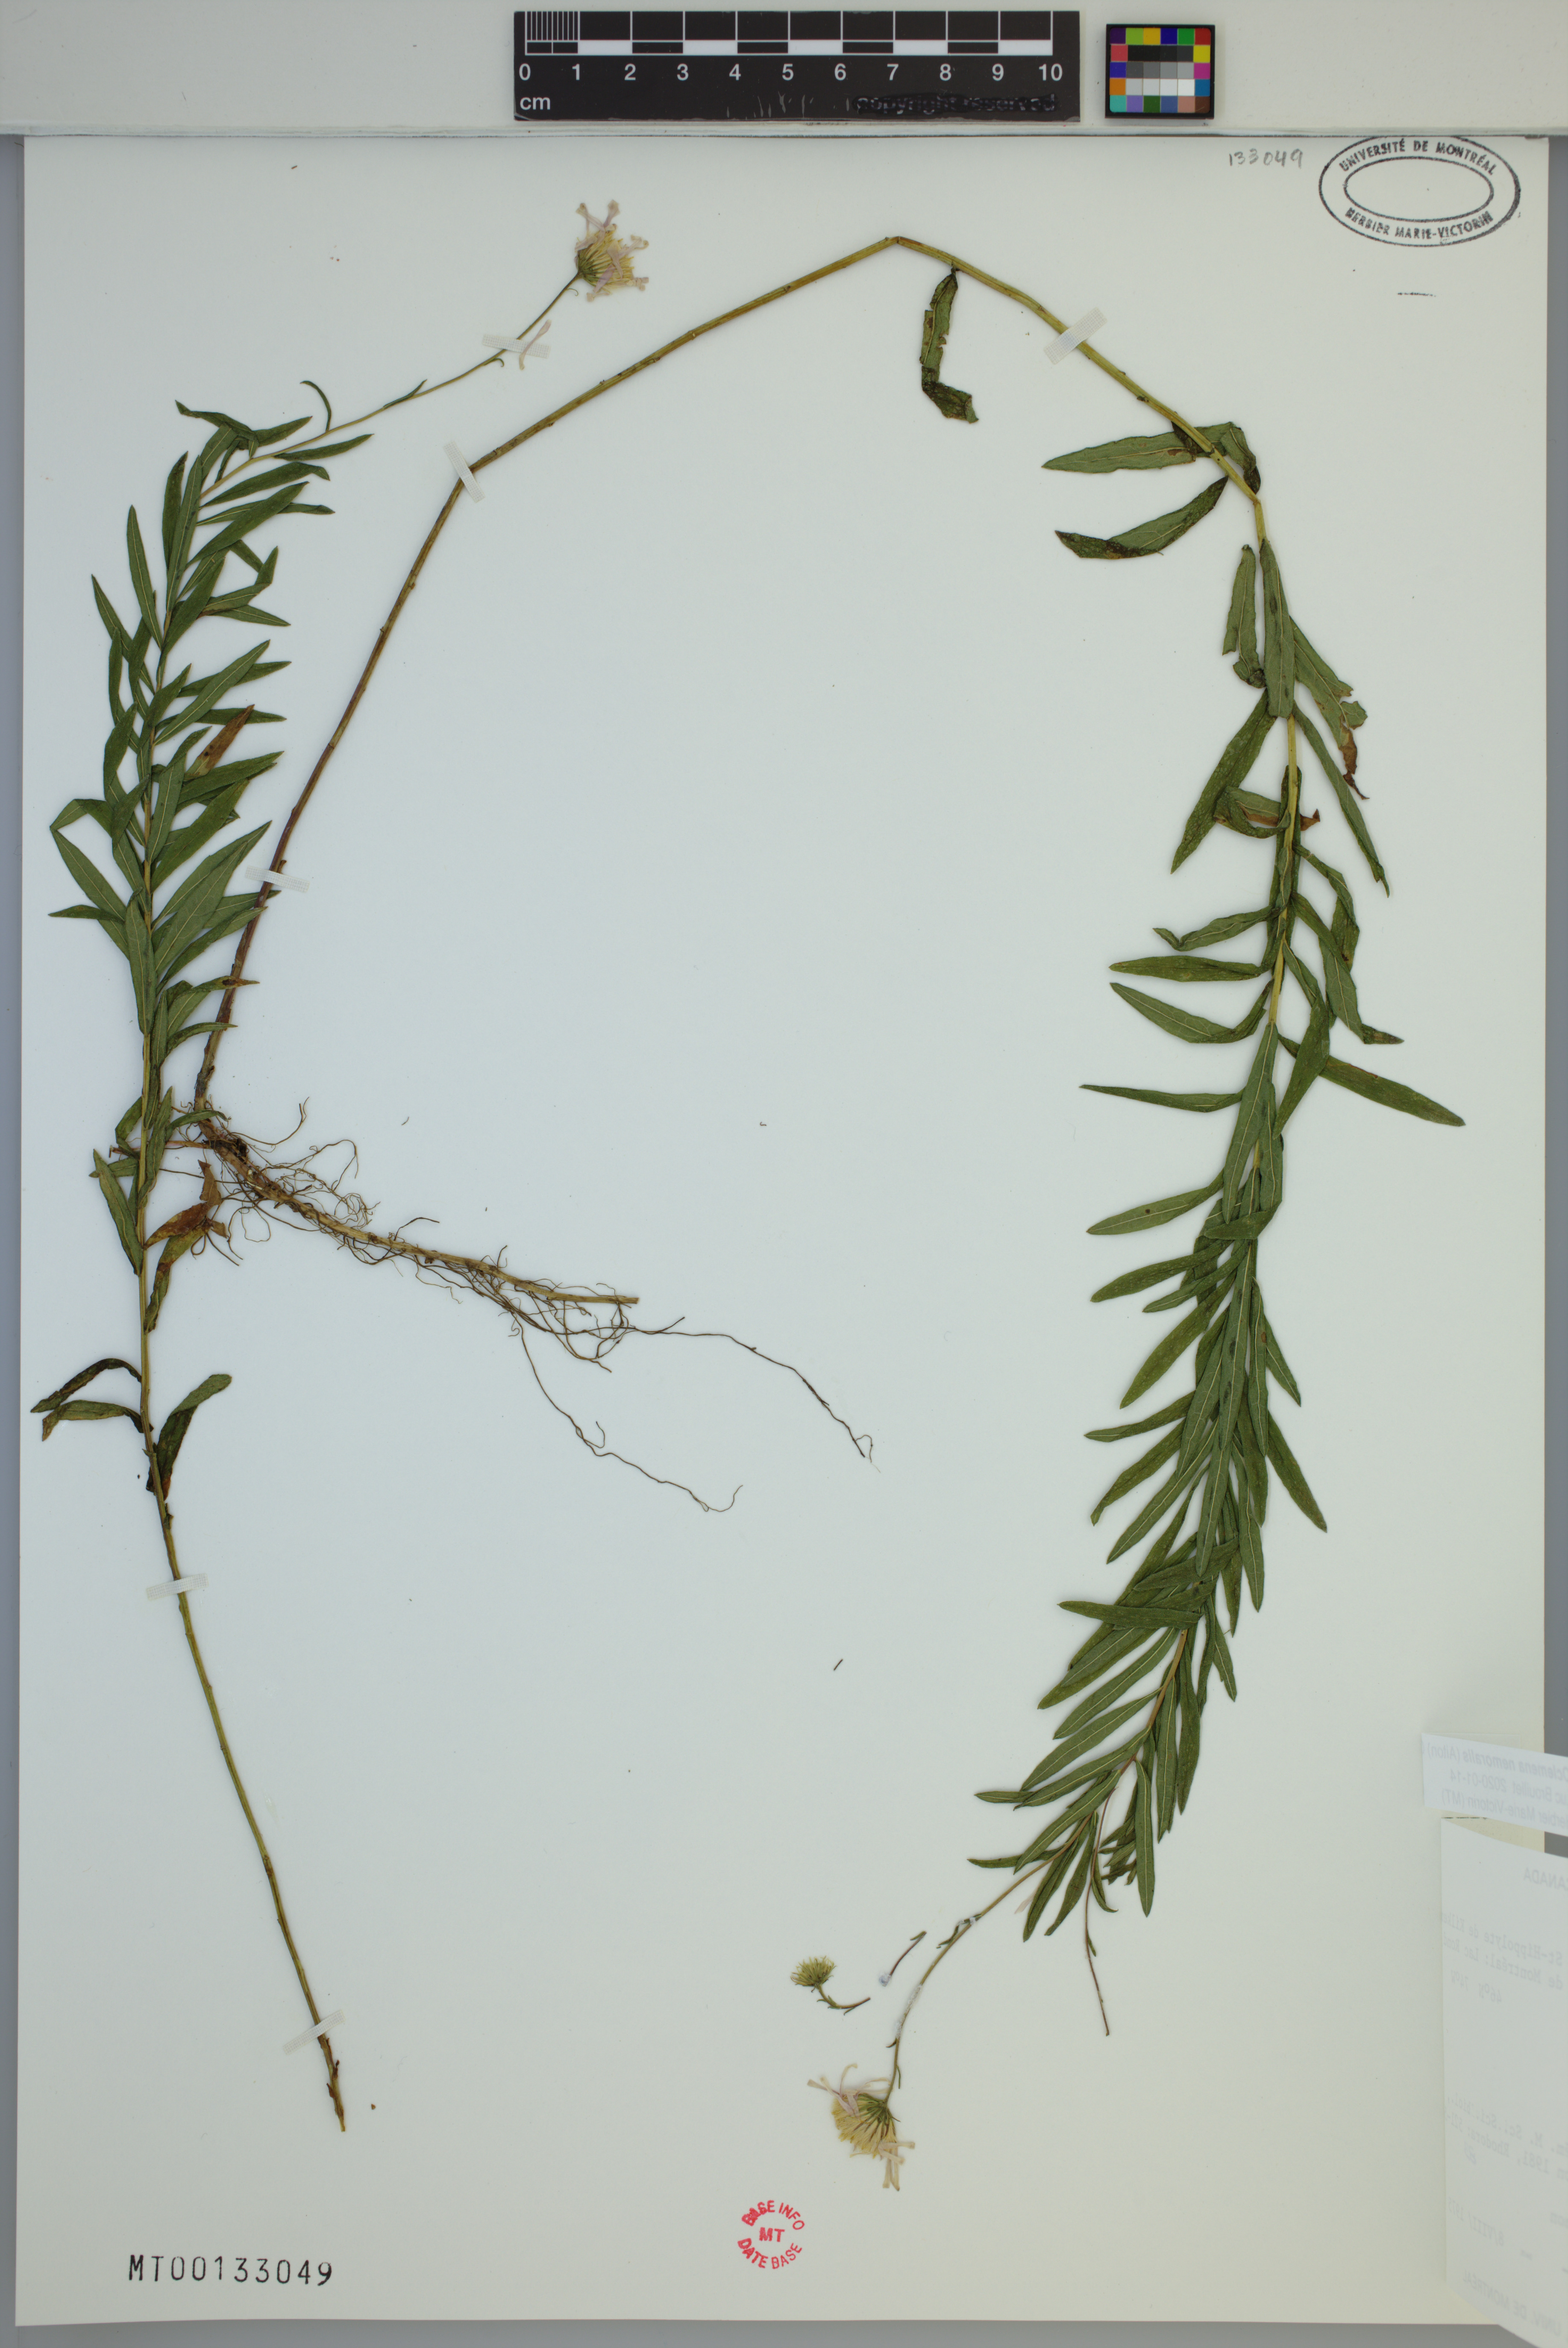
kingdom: Plantae
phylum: Tracheophyta
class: Magnoliopsida
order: Asterales
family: Asteraceae
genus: Oclemena
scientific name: Oclemena nemoralis
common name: Bog aster
